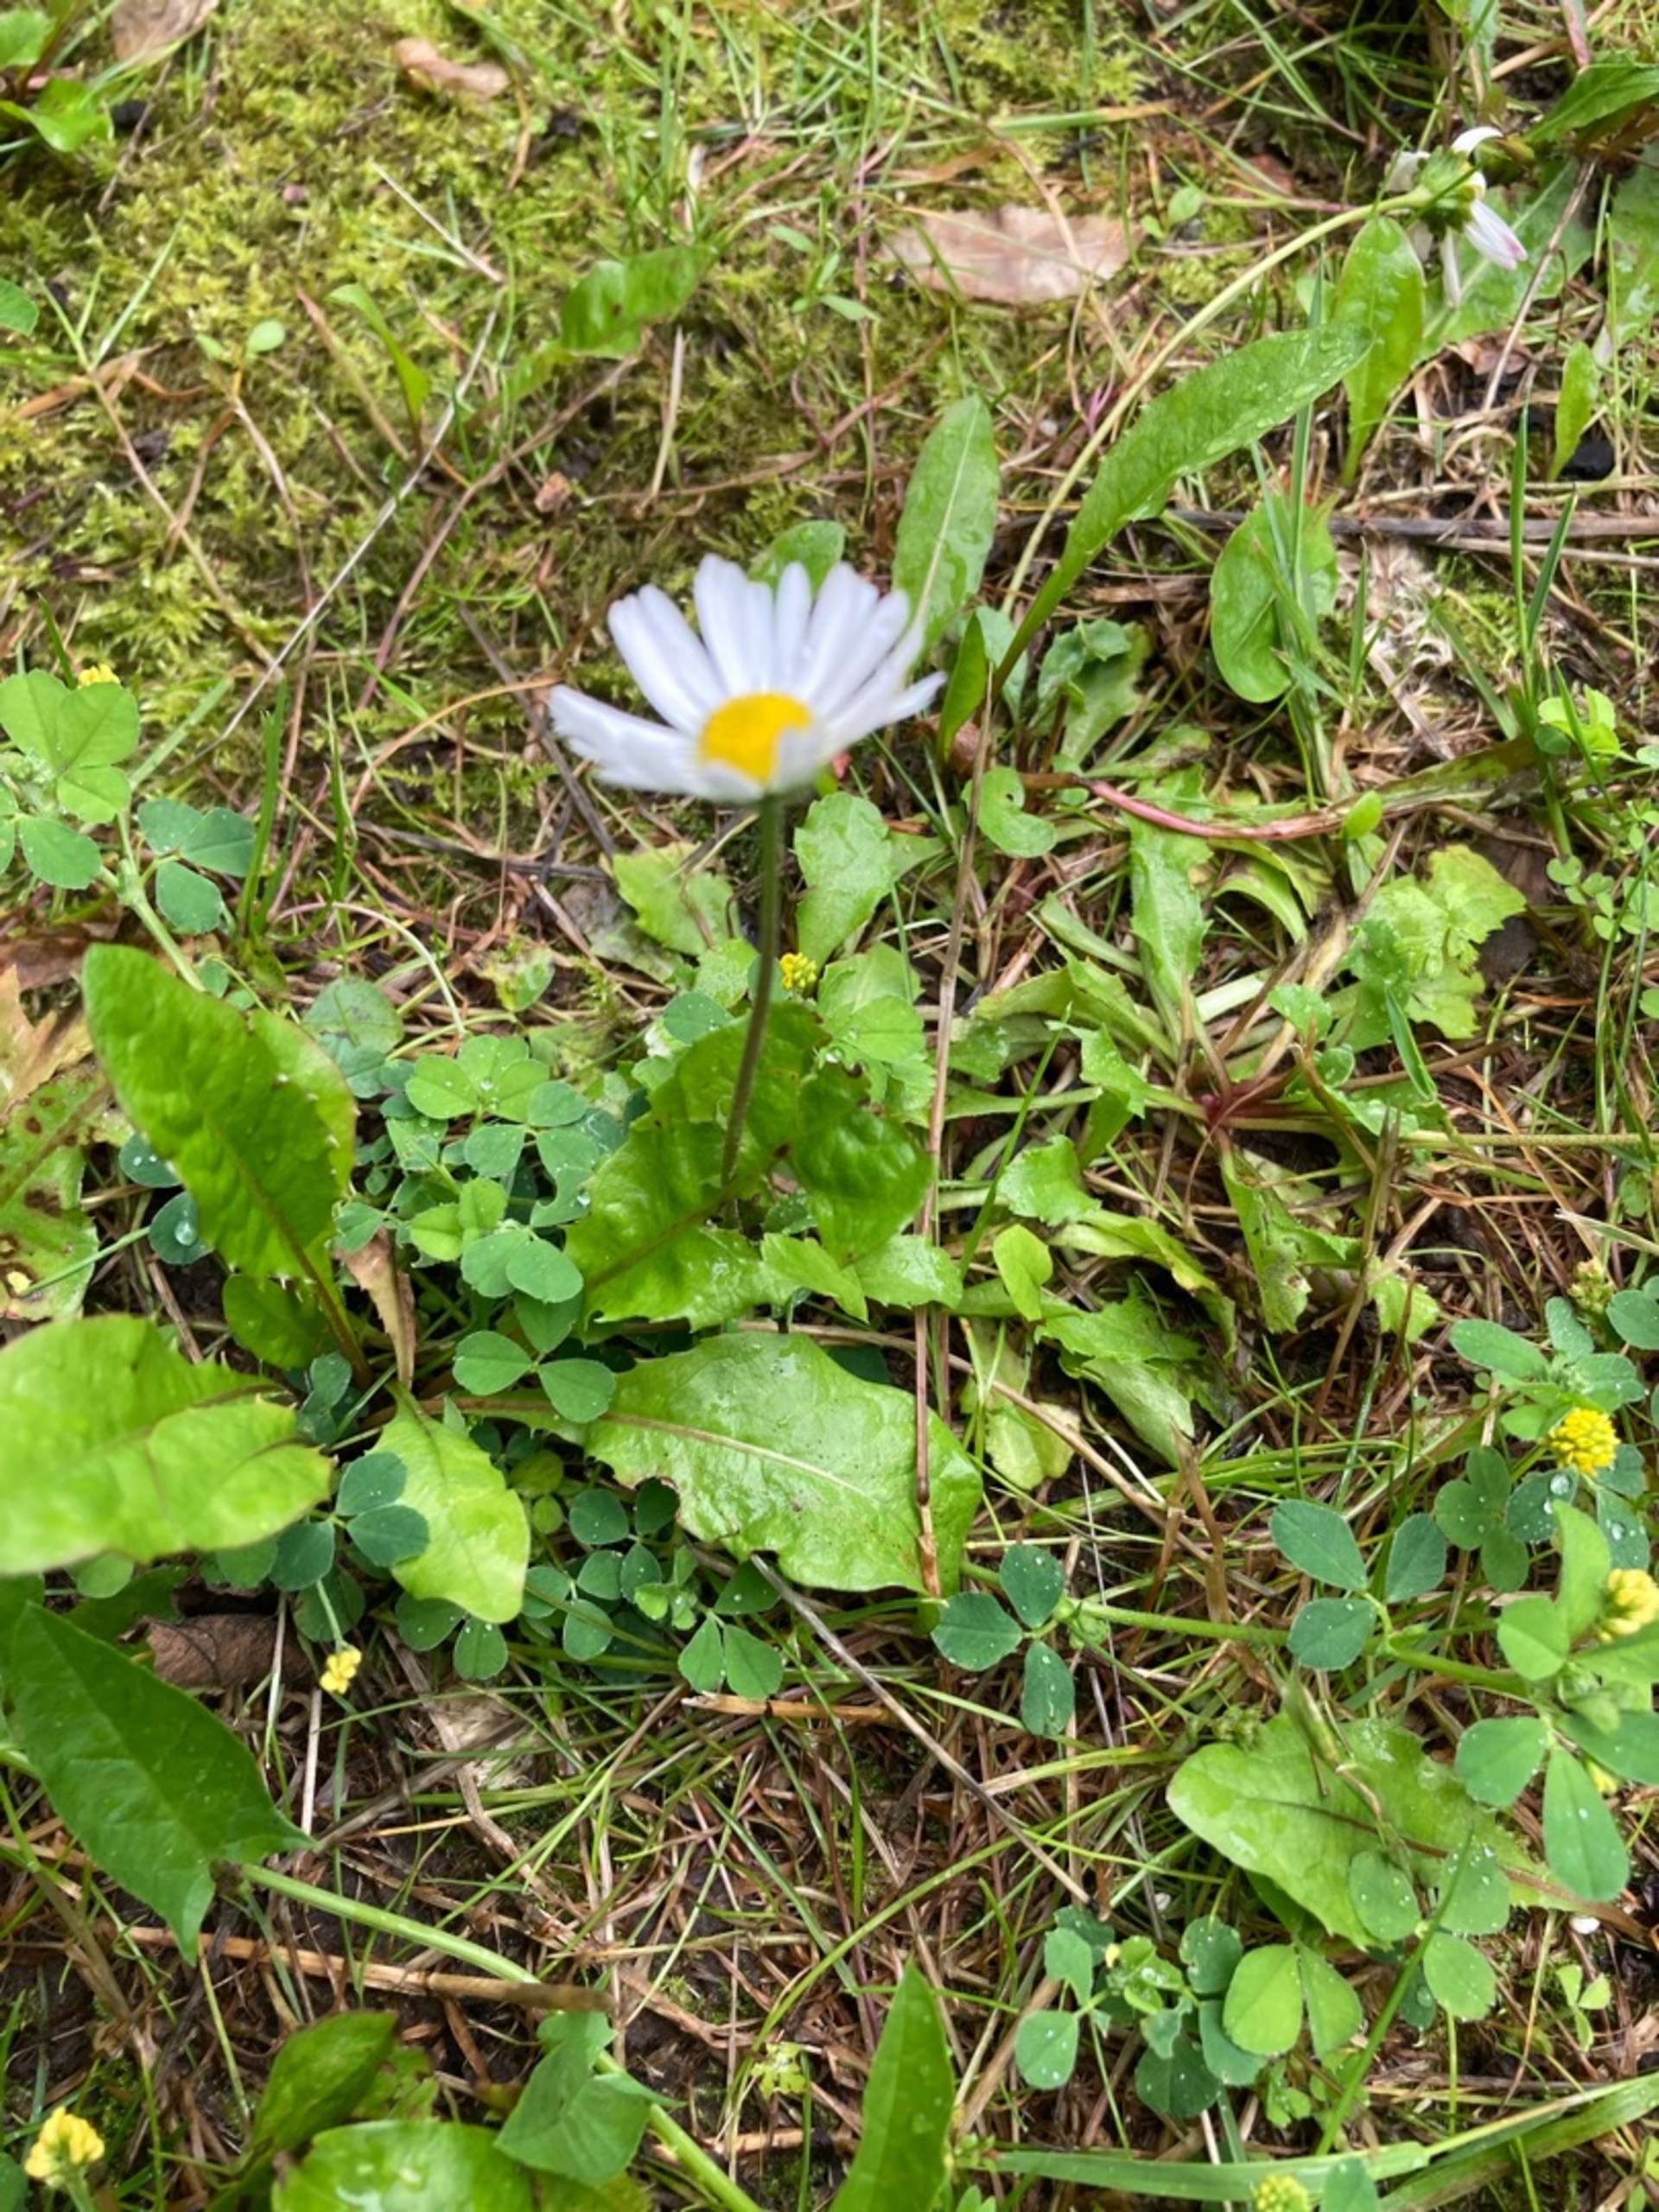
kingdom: Plantae
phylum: Tracheophyta
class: Magnoliopsida
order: Asterales
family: Asteraceae
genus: Bellis
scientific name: Bellis perennis
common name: Tusindfryd
